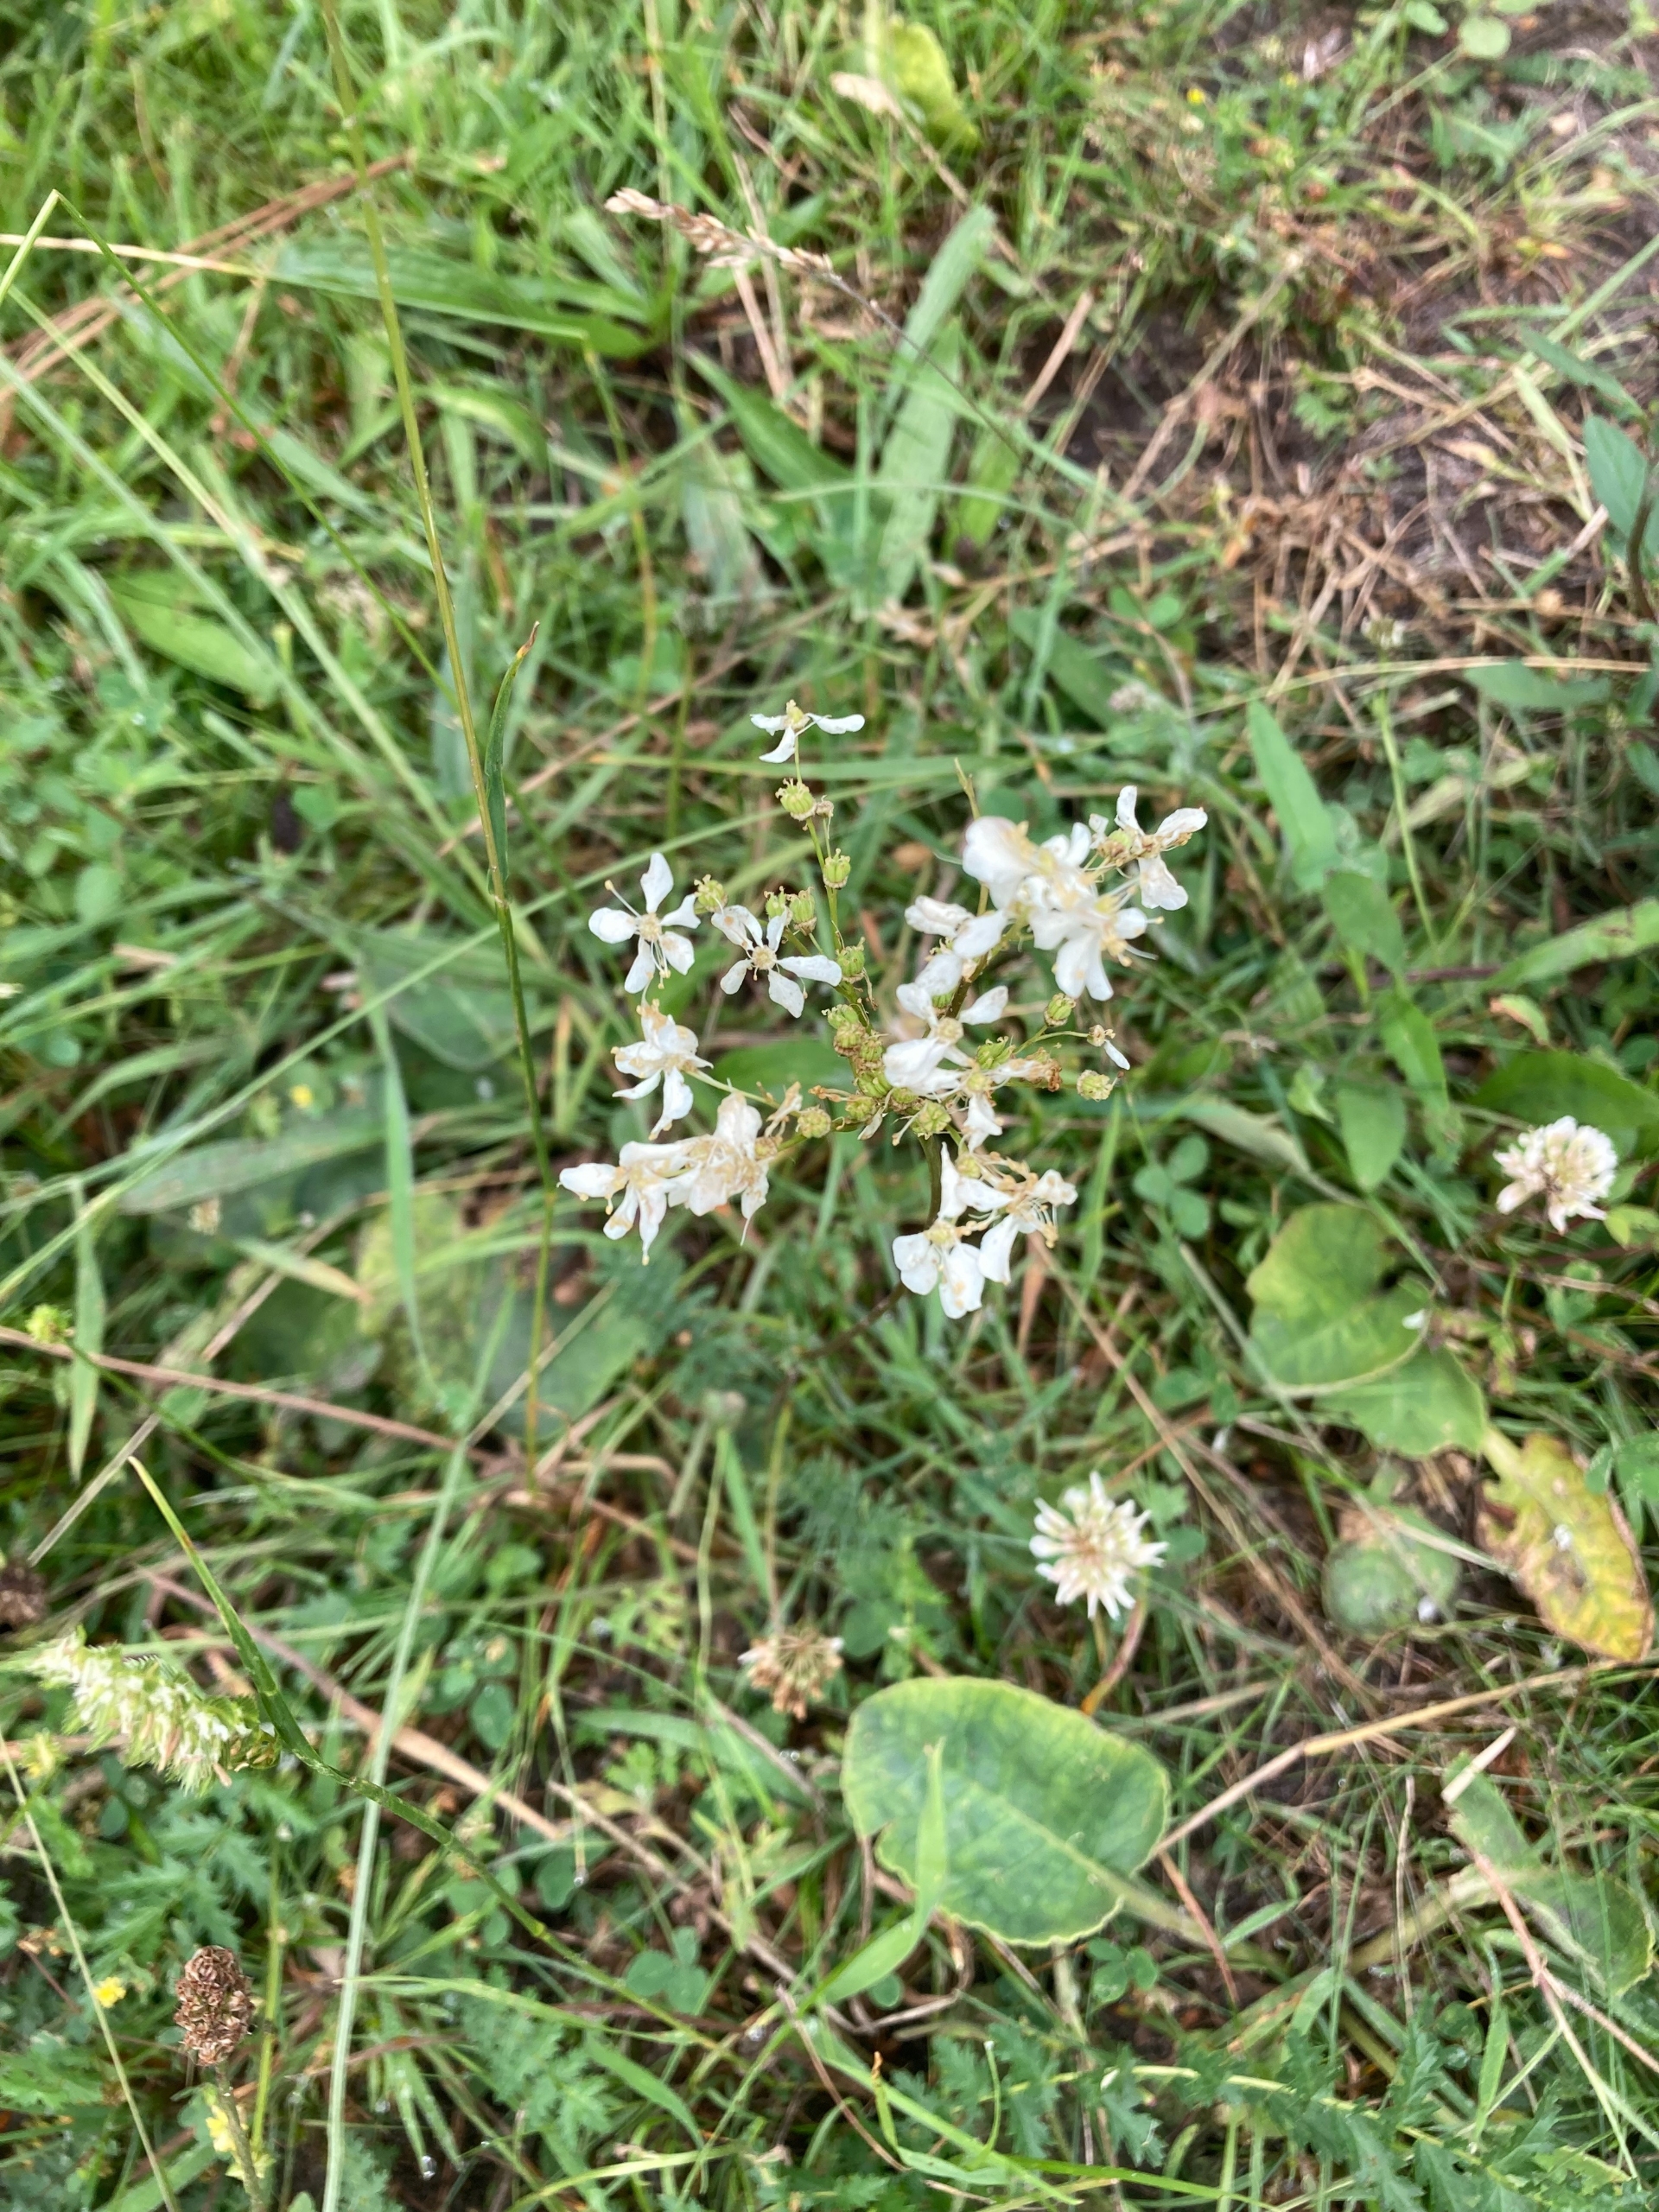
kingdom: Plantae
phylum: Tracheophyta
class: Magnoliopsida
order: Rosales
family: Rosaceae
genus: Filipendula
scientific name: Filipendula vulgaris
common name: Knoldet mjødurt
